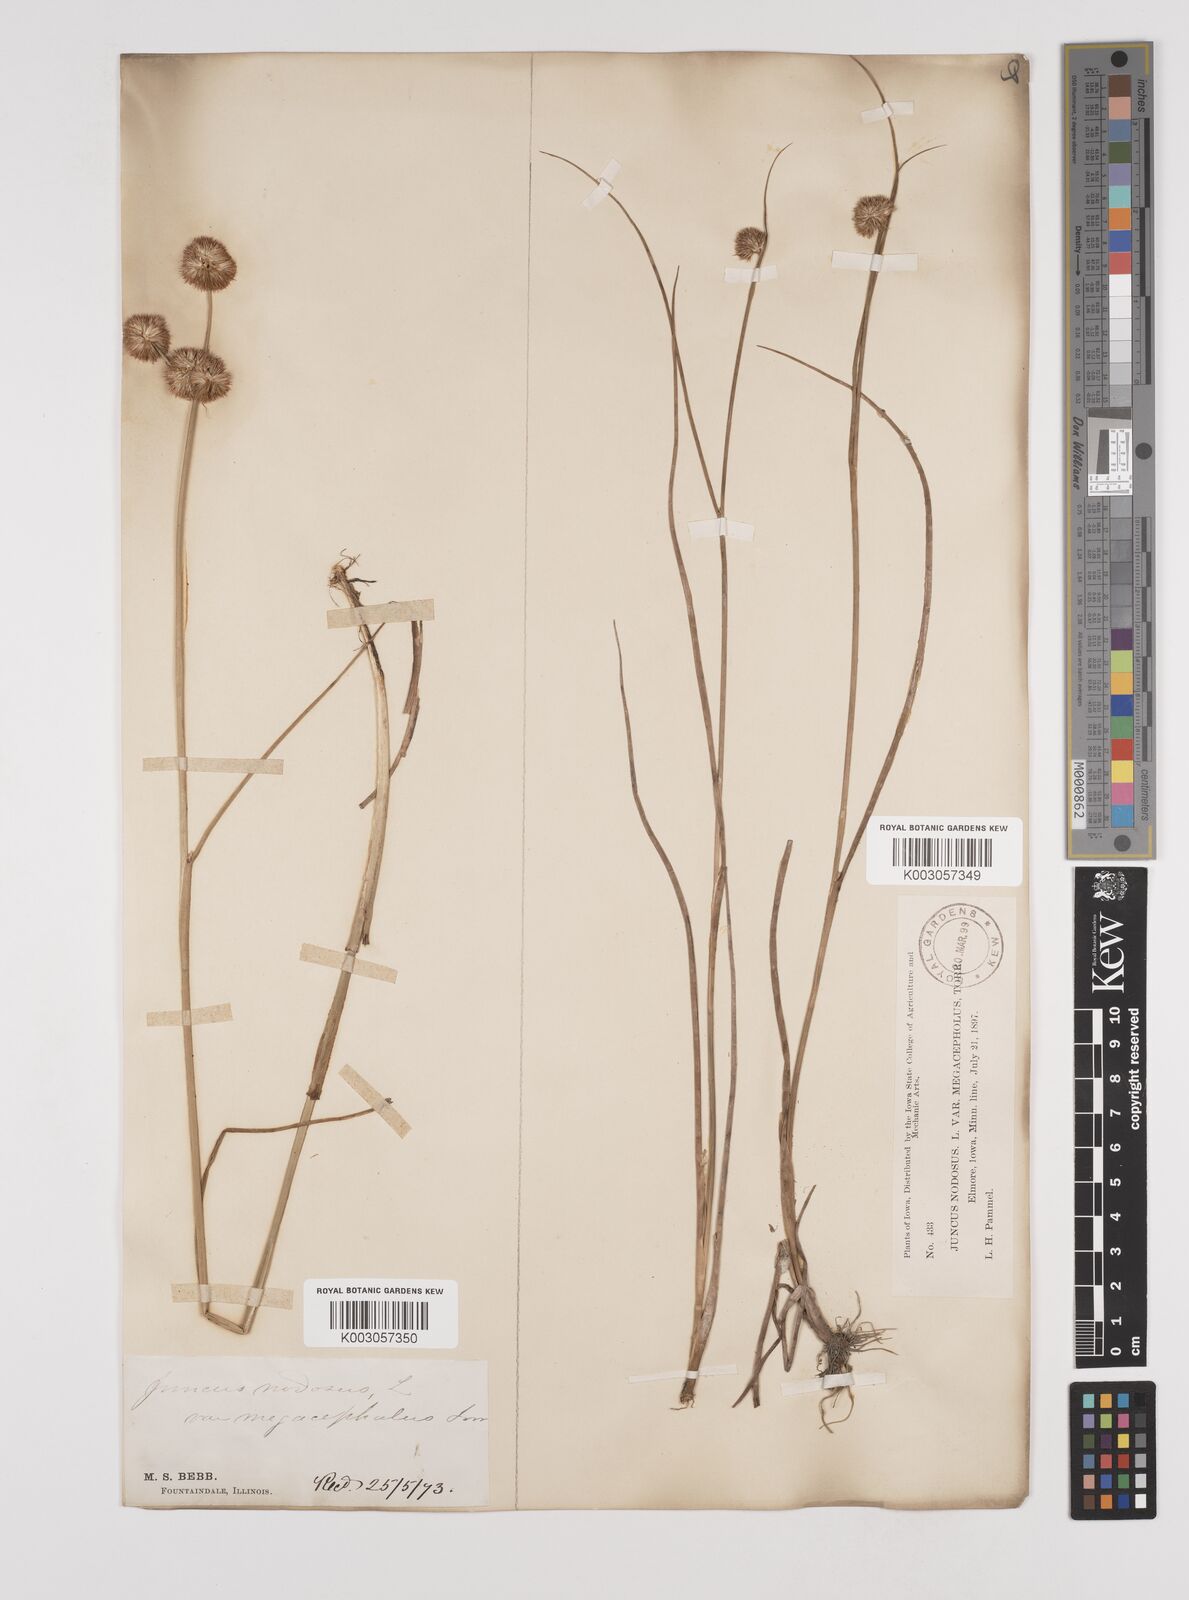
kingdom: Plantae
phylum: Tracheophyta
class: Liliopsida
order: Poales
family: Juncaceae
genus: Juncus
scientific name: Juncus nodosus
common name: Knotted rush
